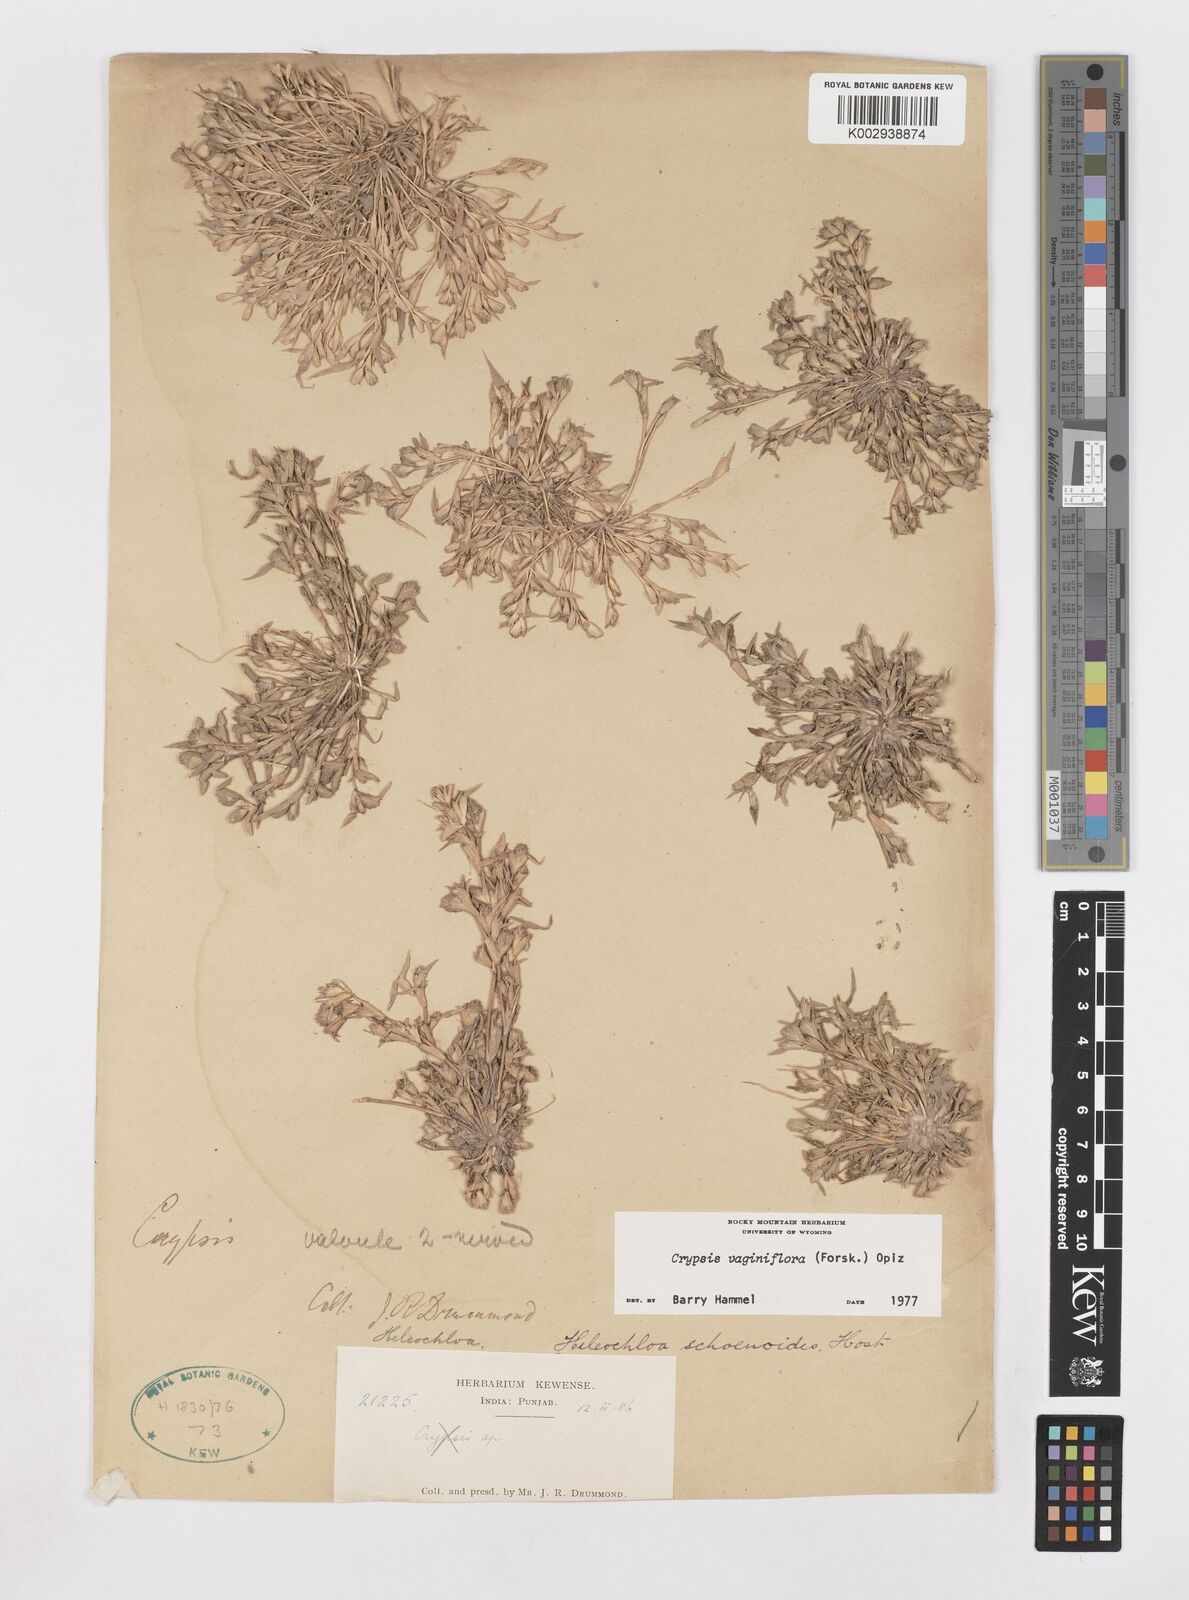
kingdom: Plantae
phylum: Tracheophyta
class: Liliopsida
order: Poales
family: Poaceae
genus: Sporobolus
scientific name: Sporobolus niliacus
